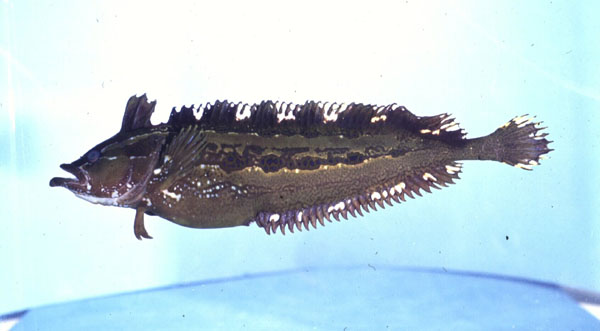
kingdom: Animalia
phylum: Chordata
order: Perciformes
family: Clinidae
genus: Pavoclinus
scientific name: Pavoclinus mentalis
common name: Bearded klipfish
